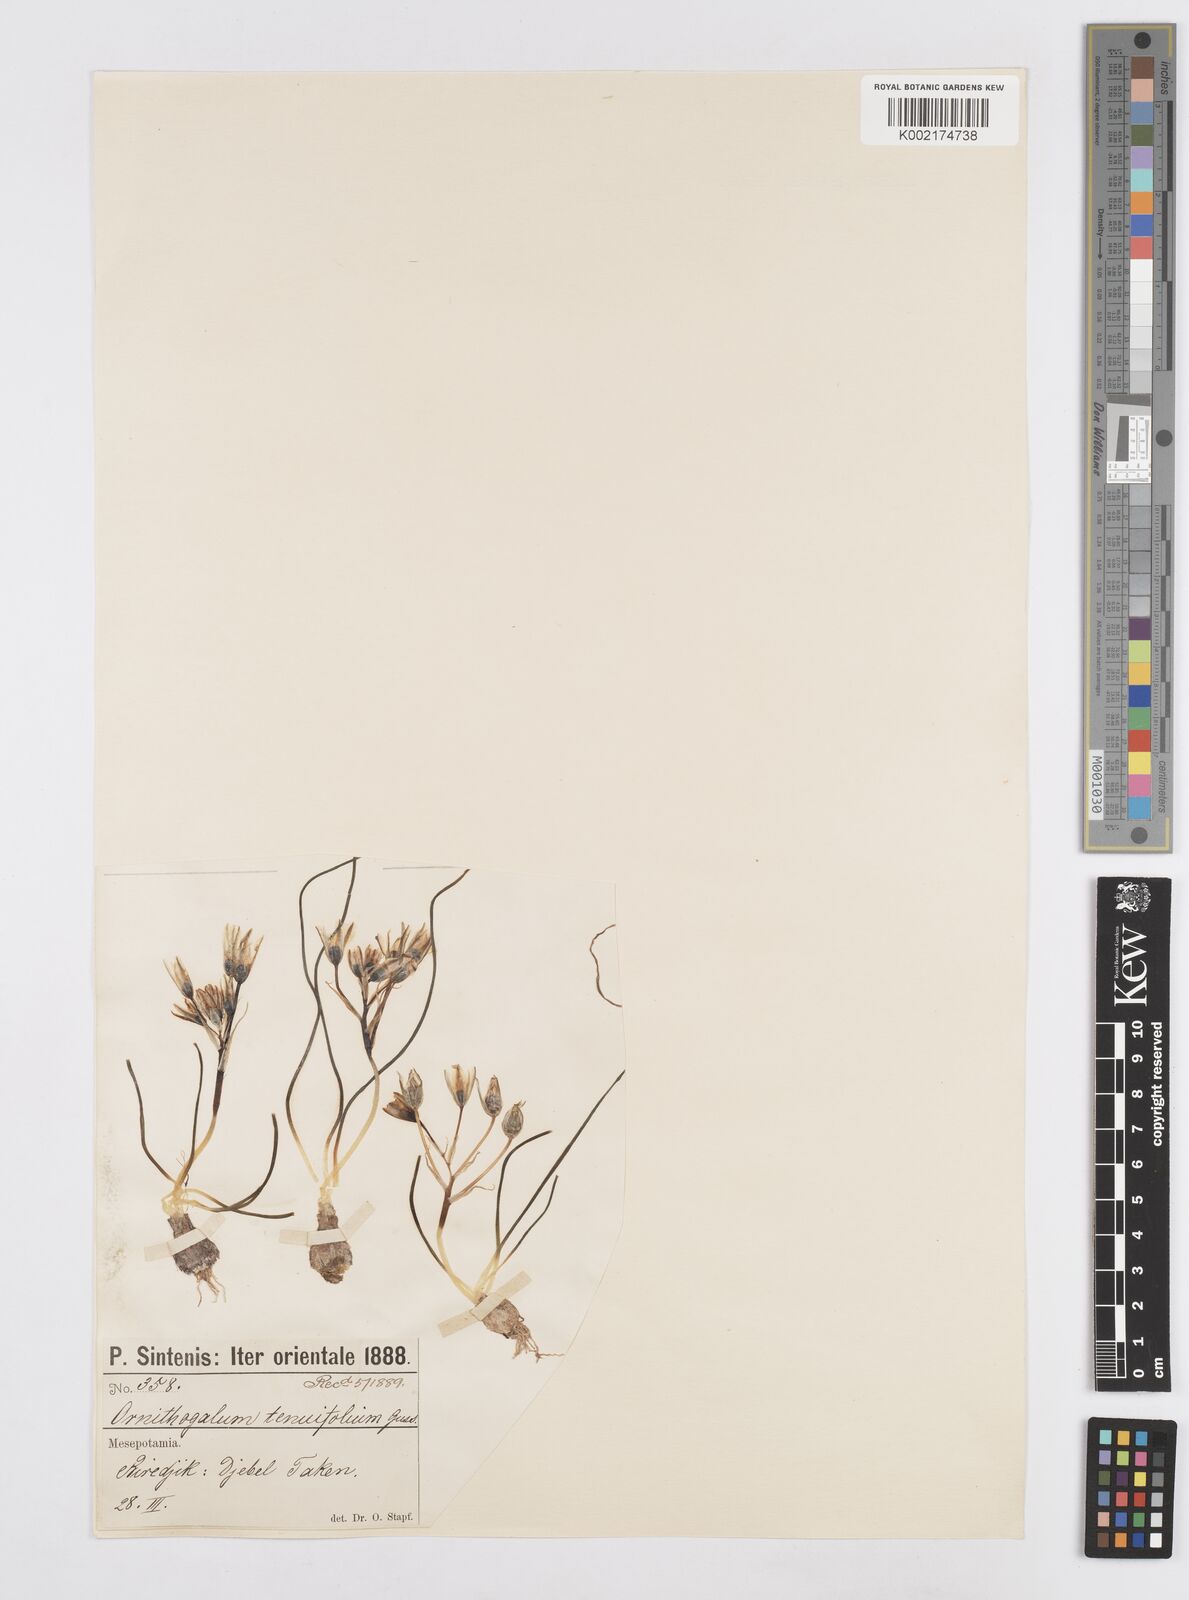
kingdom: Plantae
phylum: Tracheophyta
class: Liliopsida
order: Asparagales
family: Asparagaceae
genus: Ornithogalum
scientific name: Ornithogalum gussonei
